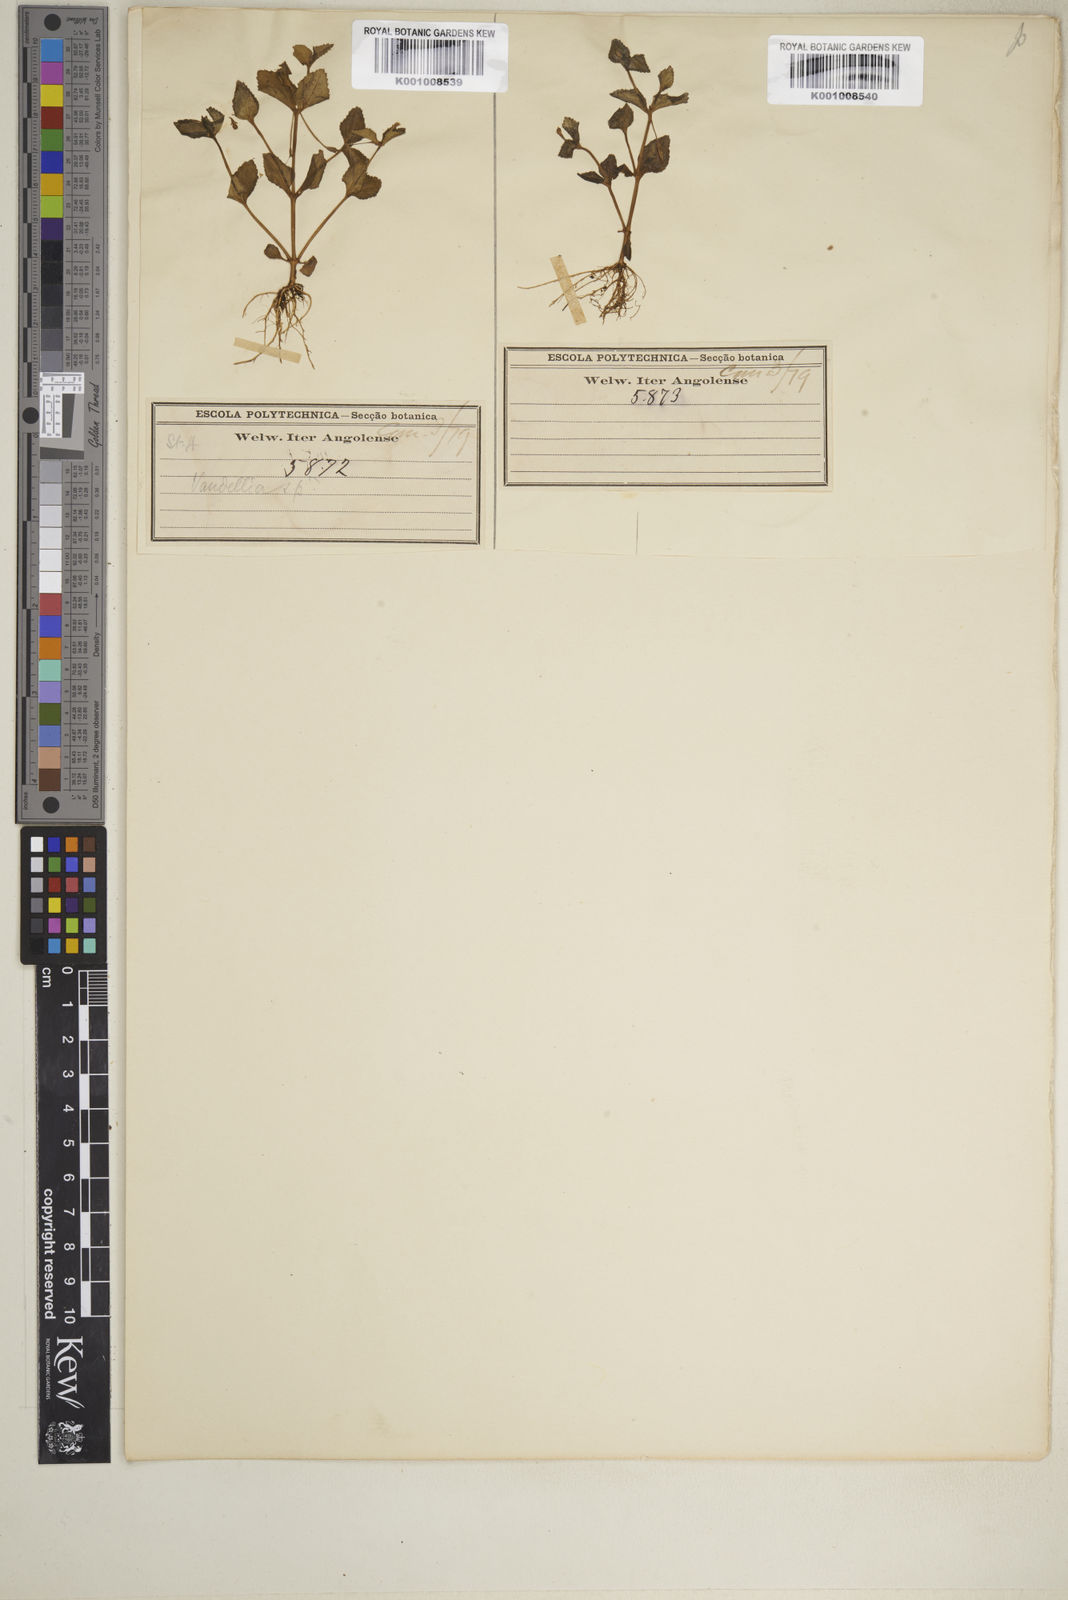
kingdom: Plantae
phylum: Tracheophyta
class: Magnoliopsida
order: Lamiales
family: Linderniaceae
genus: Craterostigma
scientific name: Craterostigma nummulariifolium
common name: False pimpernel
